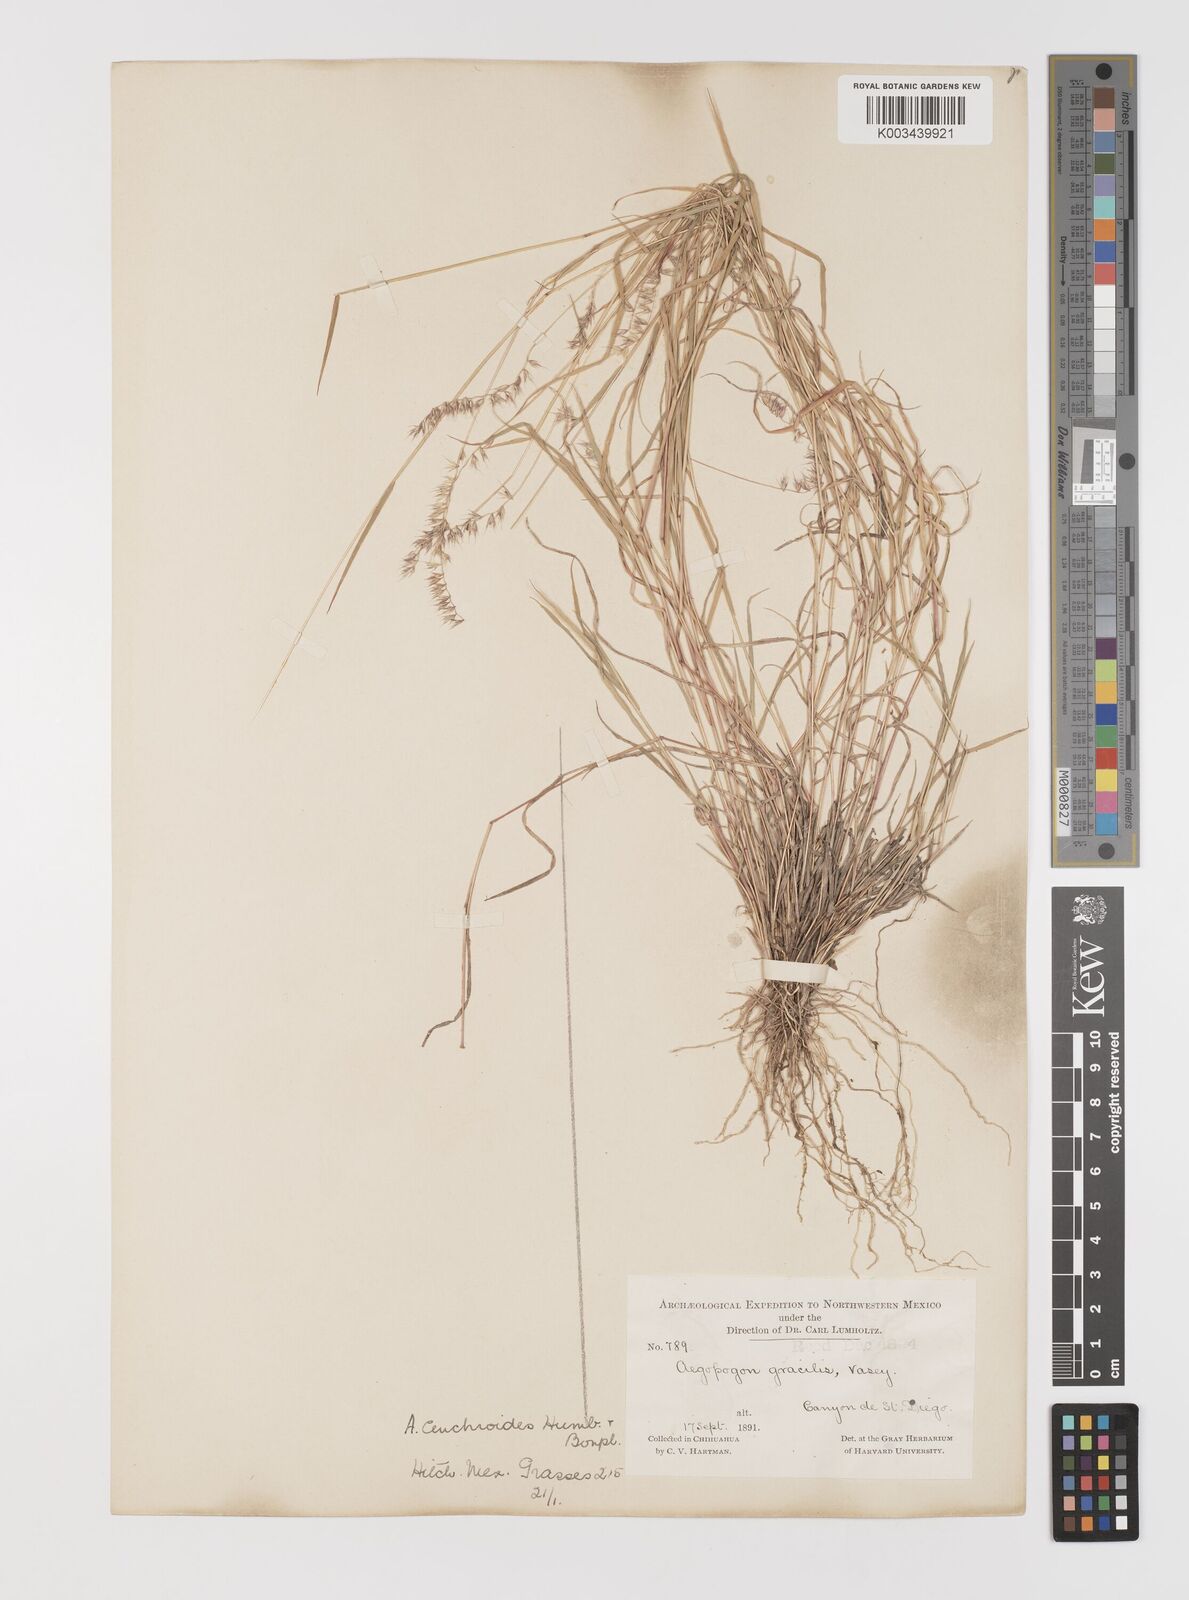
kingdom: Plantae
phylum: Tracheophyta
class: Liliopsida
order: Poales
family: Poaceae
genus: Muhlenbergia
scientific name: Muhlenbergia uniseta
